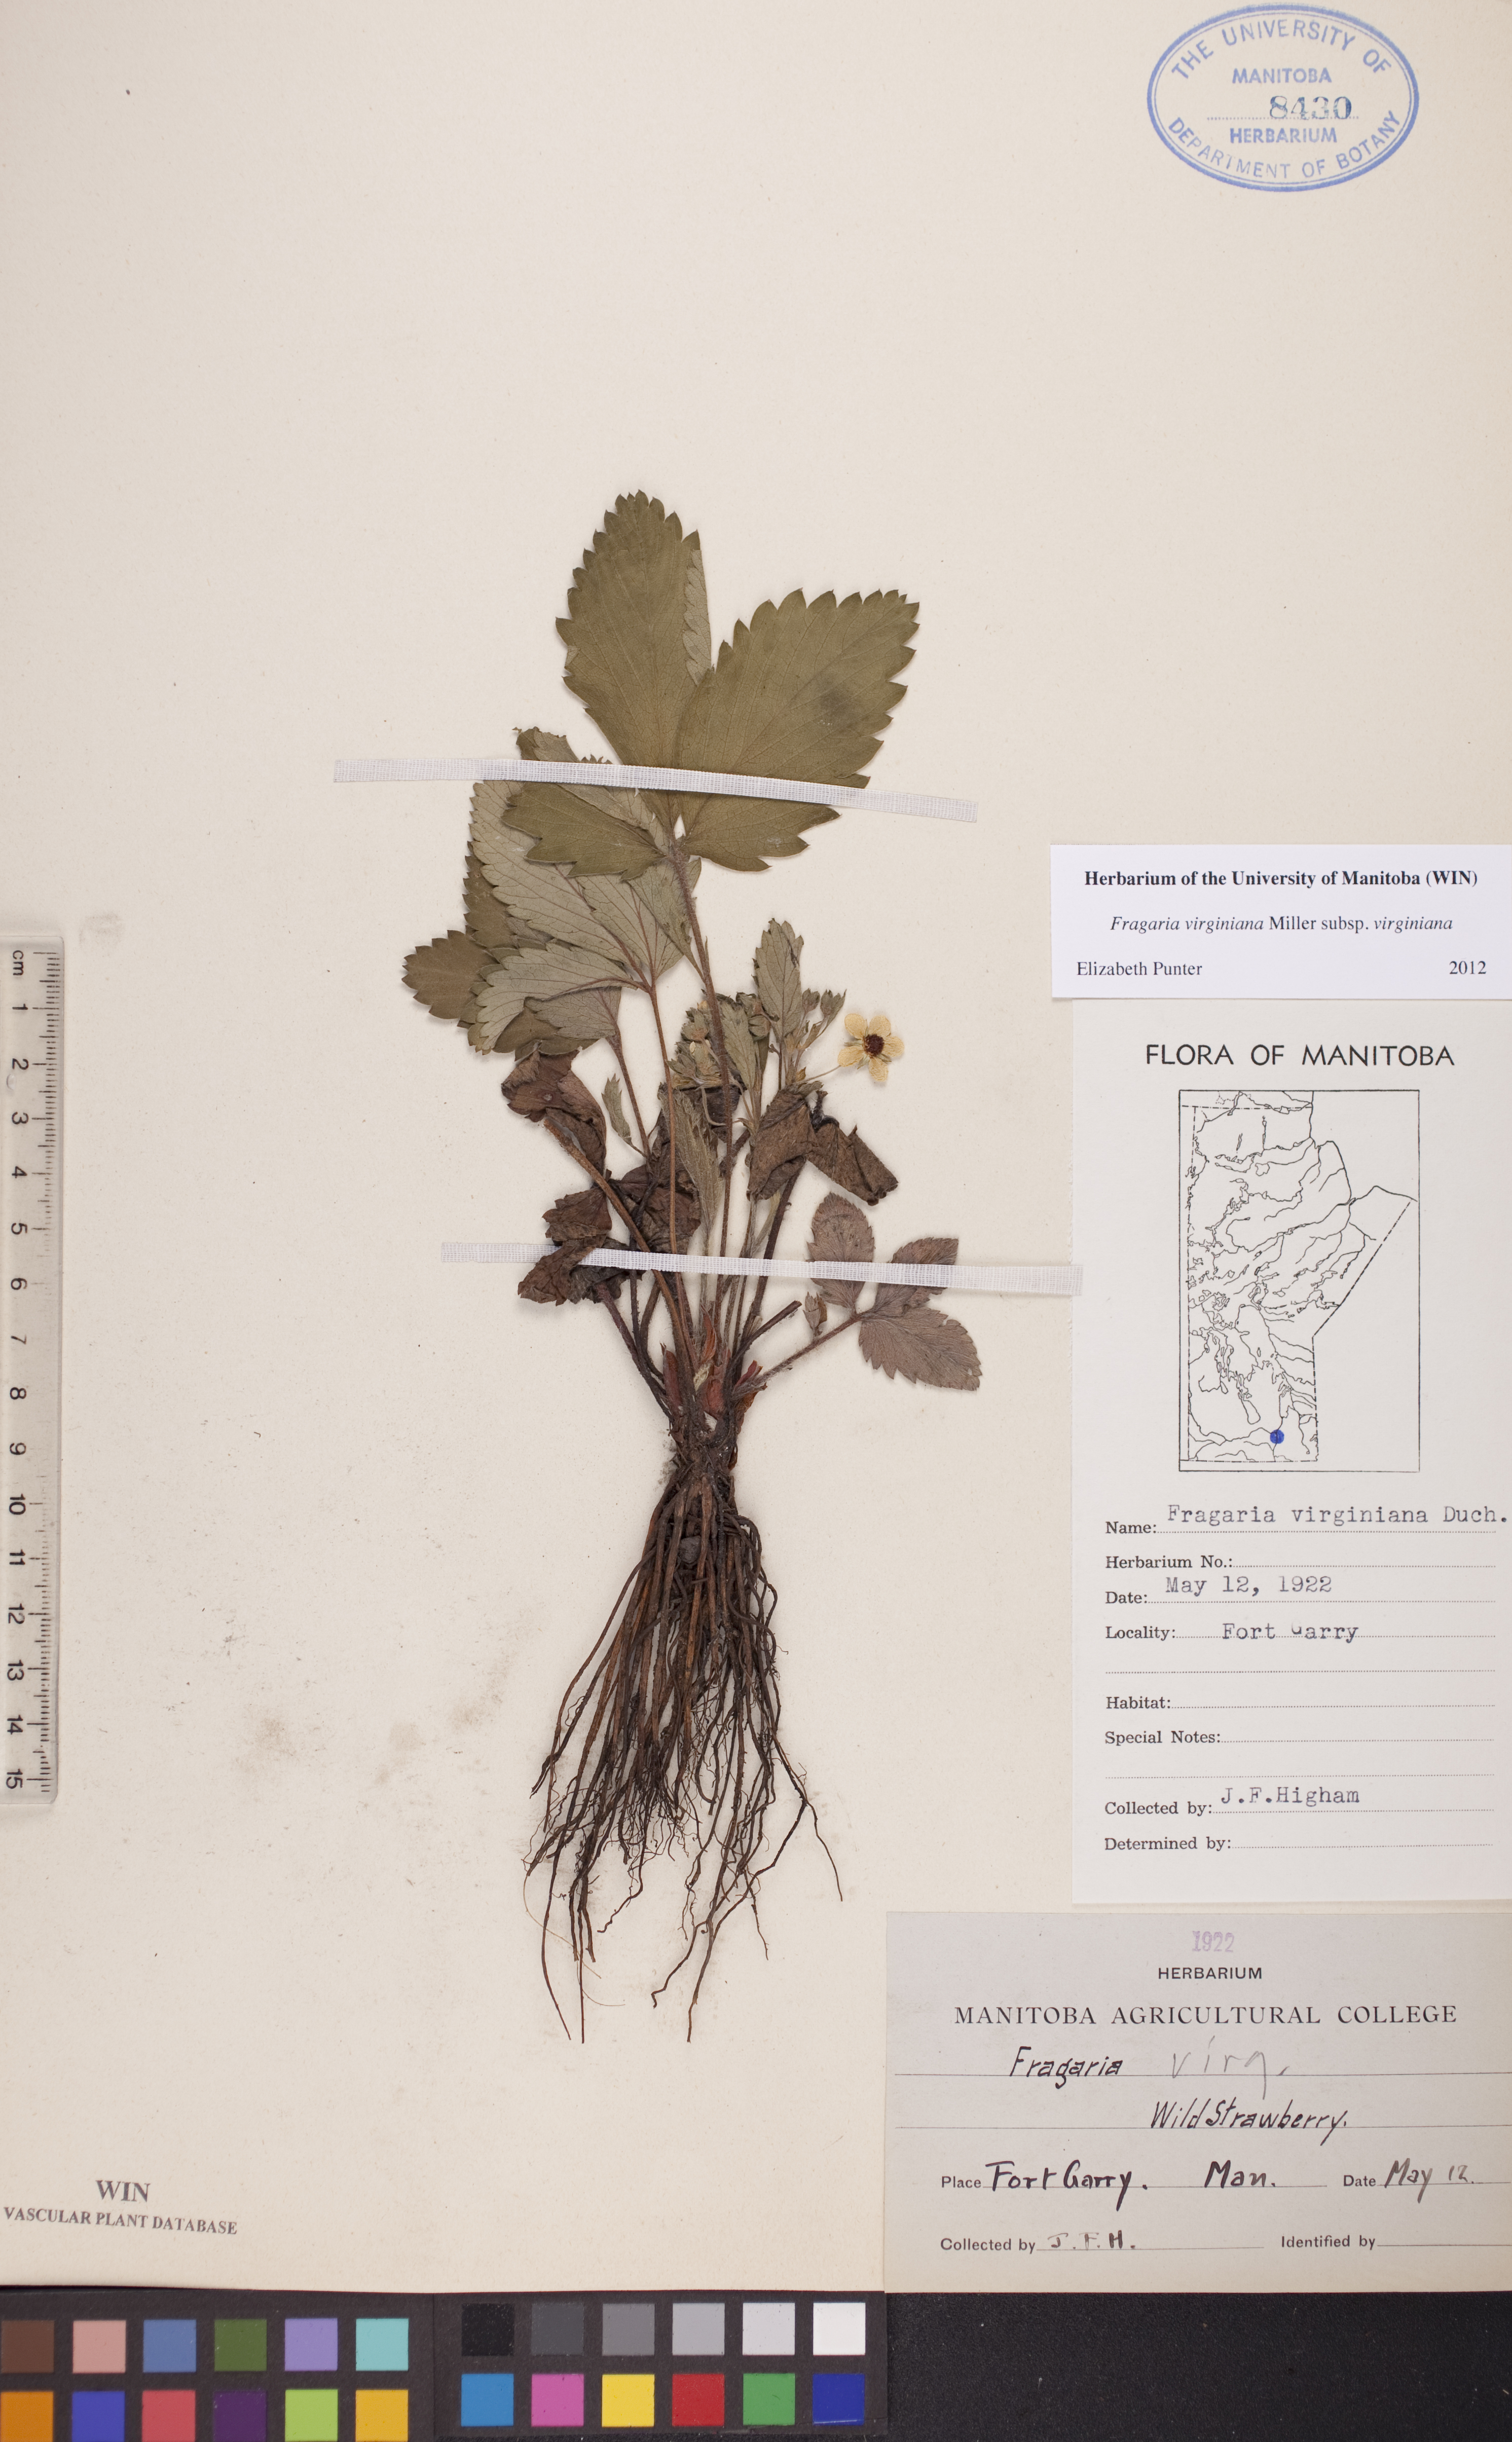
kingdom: Plantae
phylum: Tracheophyta
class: Magnoliopsida
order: Rosales
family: Rosaceae
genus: Fragaria
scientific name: Fragaria virginiana
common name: Thickleaved wild strawberry
